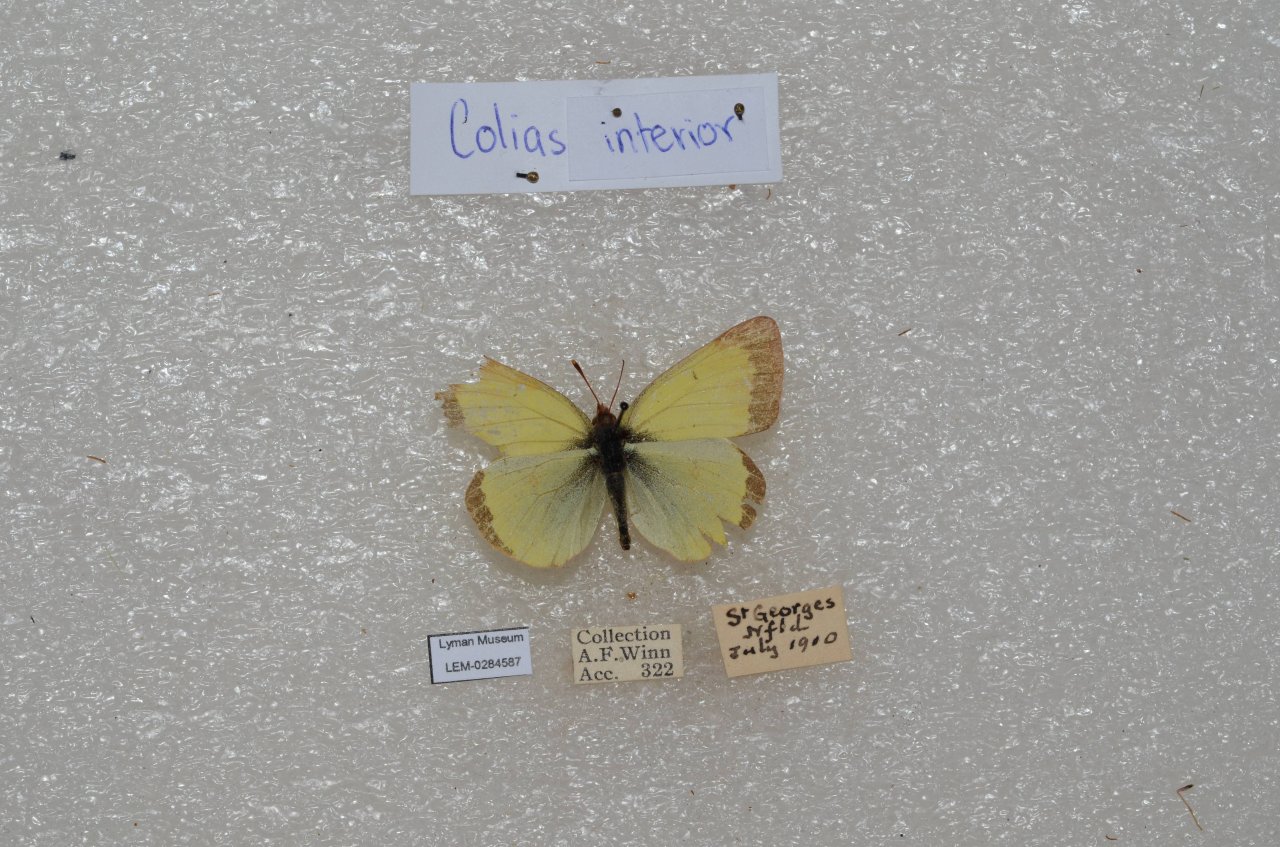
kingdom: Animalia
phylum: Arthropoda
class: Insecta
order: Lepidoptera
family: Pieridae
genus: Colias
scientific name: Colias interior
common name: Pink-edged Sulphur
